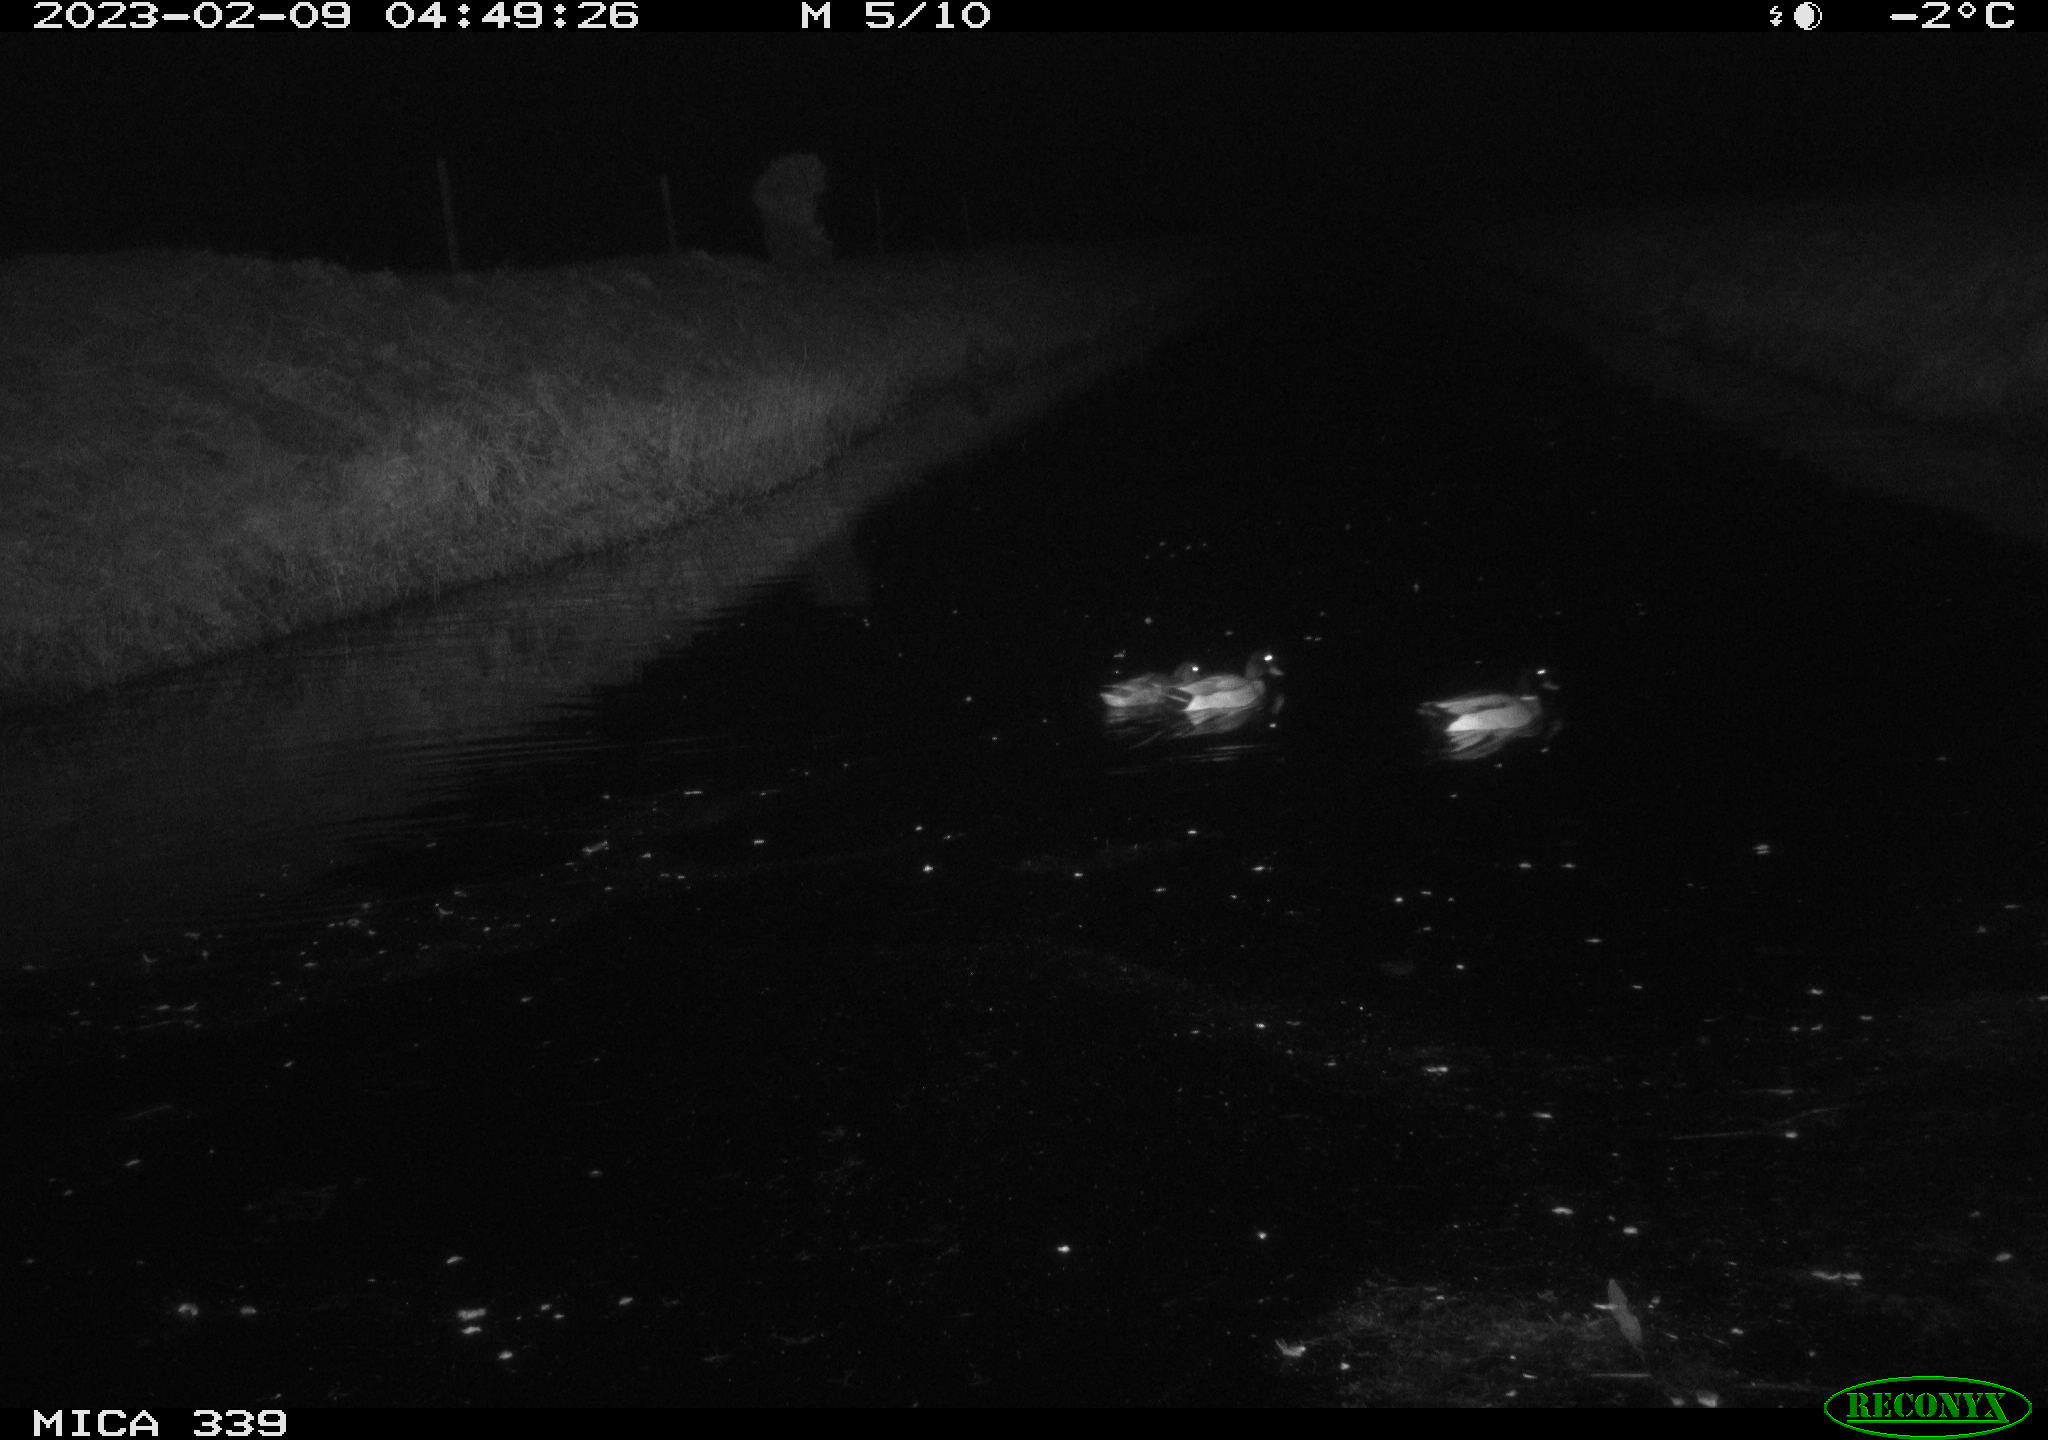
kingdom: Animalia
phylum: Chordata
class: Aves
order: Anseriformes
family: Anatidae
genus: Anas
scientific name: Anas
